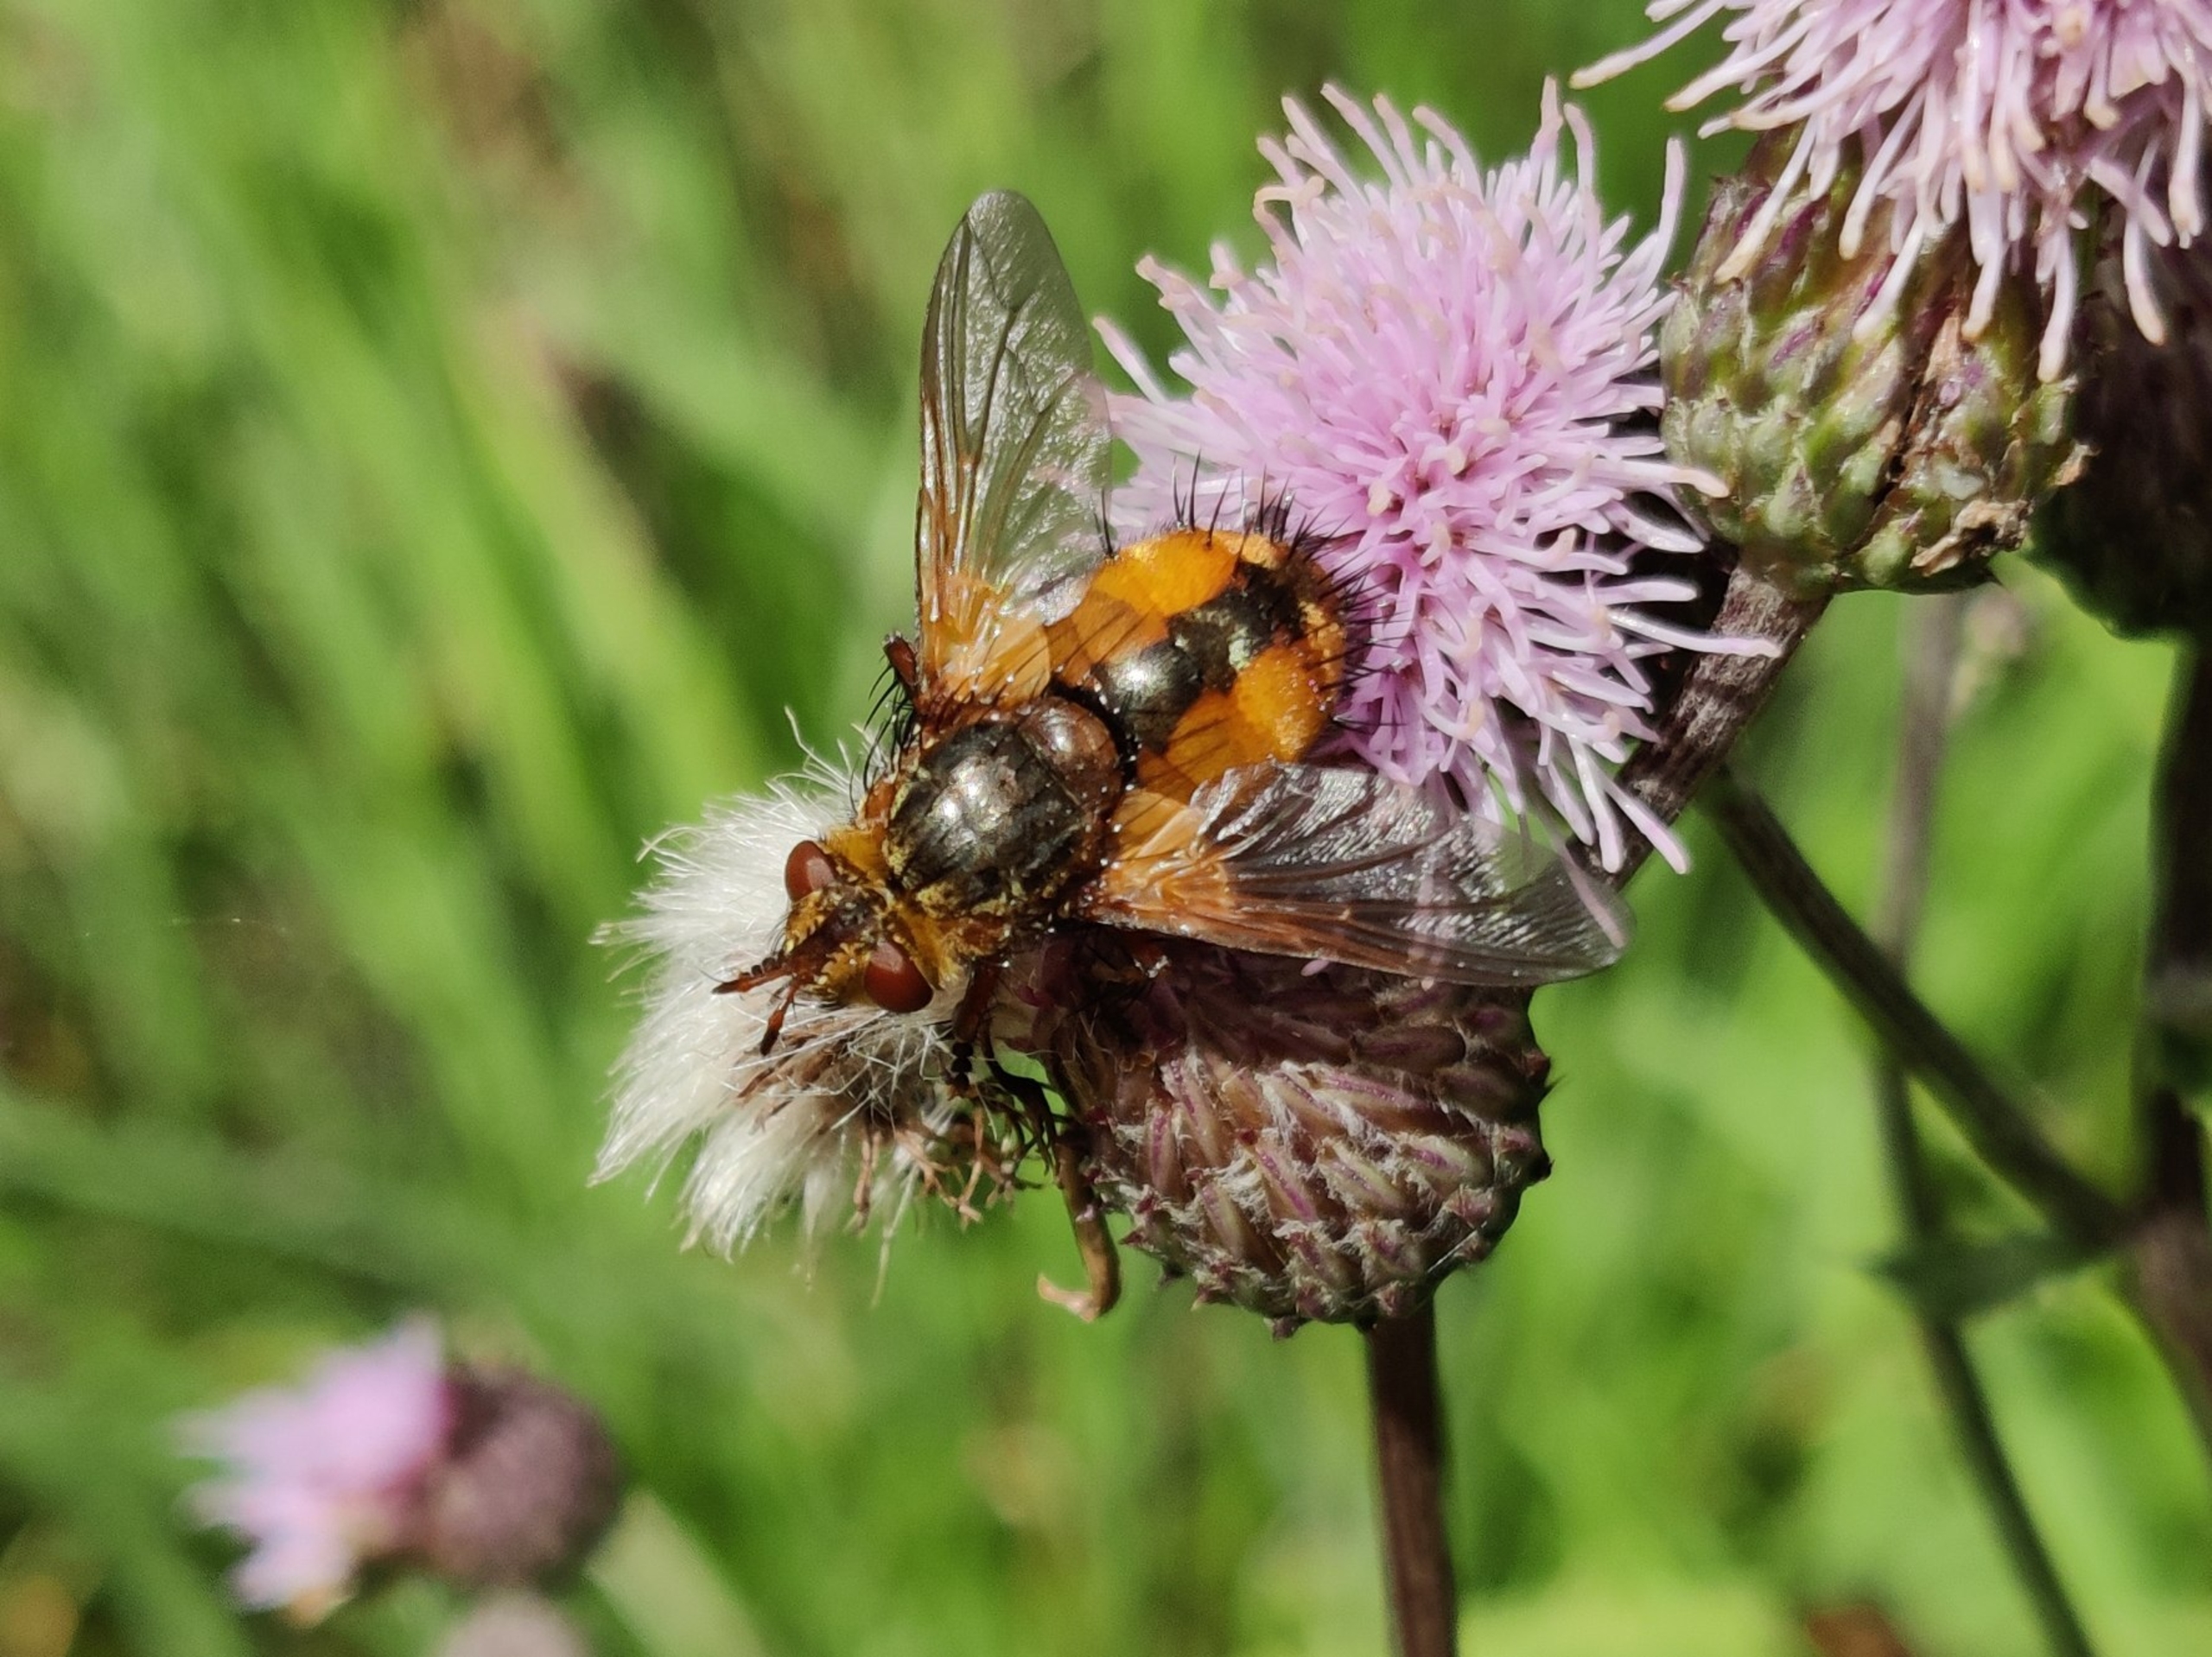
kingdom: Animalia
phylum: Arthropoda
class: Insecta
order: Diptera
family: Tachinidae
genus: Tachina
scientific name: Tachina fera
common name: Mellemfluen oskar
